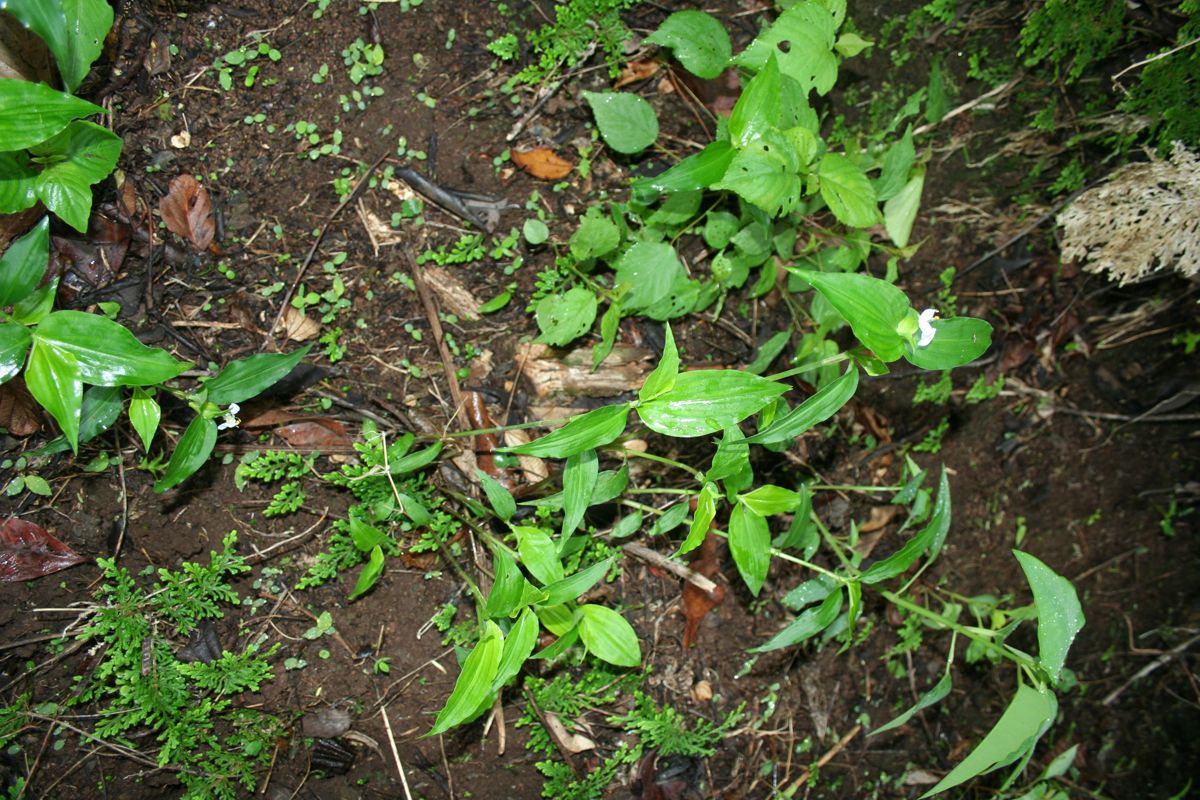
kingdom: Plantae
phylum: Tracheophyta
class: Liliopsida
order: Commelinales
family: Commelinaceae
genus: Commelina
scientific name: Commelina erecta
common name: Blousel blommetjie
